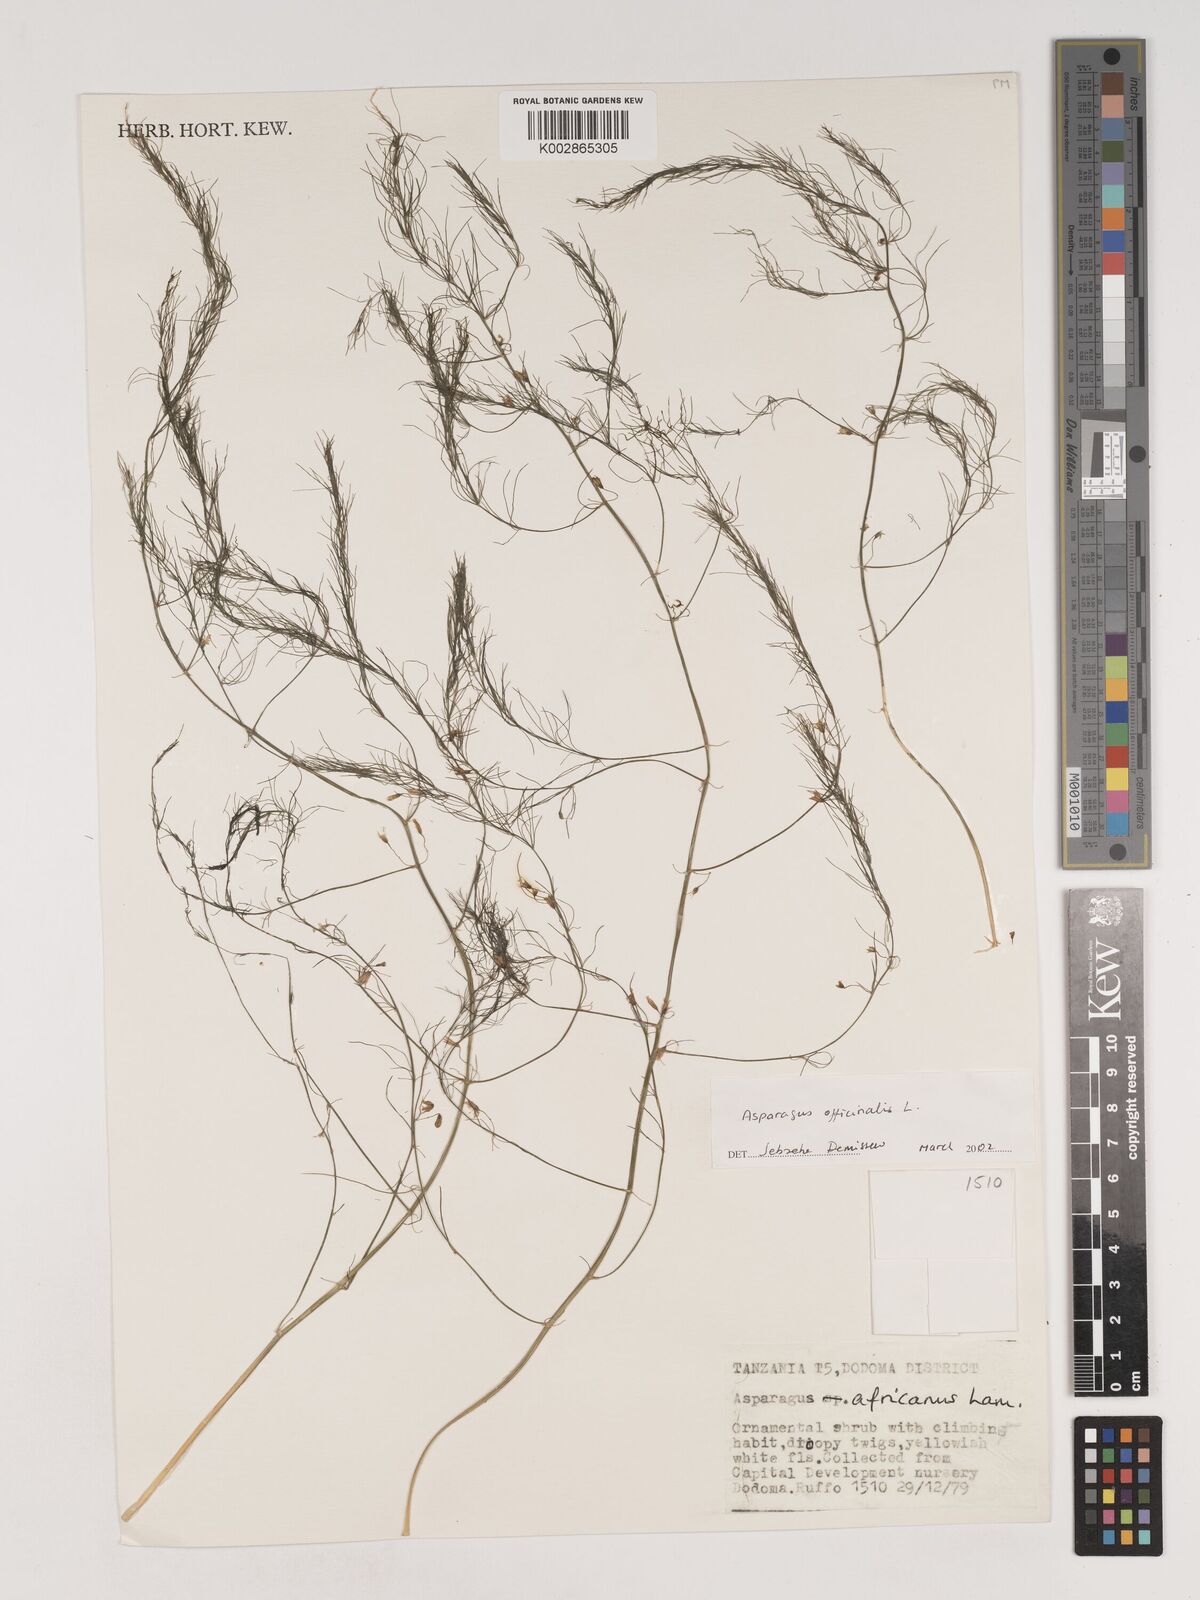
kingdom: Plantae
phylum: Tracheophyta
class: Liliopsida
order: Asparagales
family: Asparagaceae
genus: Asparagus
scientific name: Asparagus officinalis
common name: Garden asparagus
